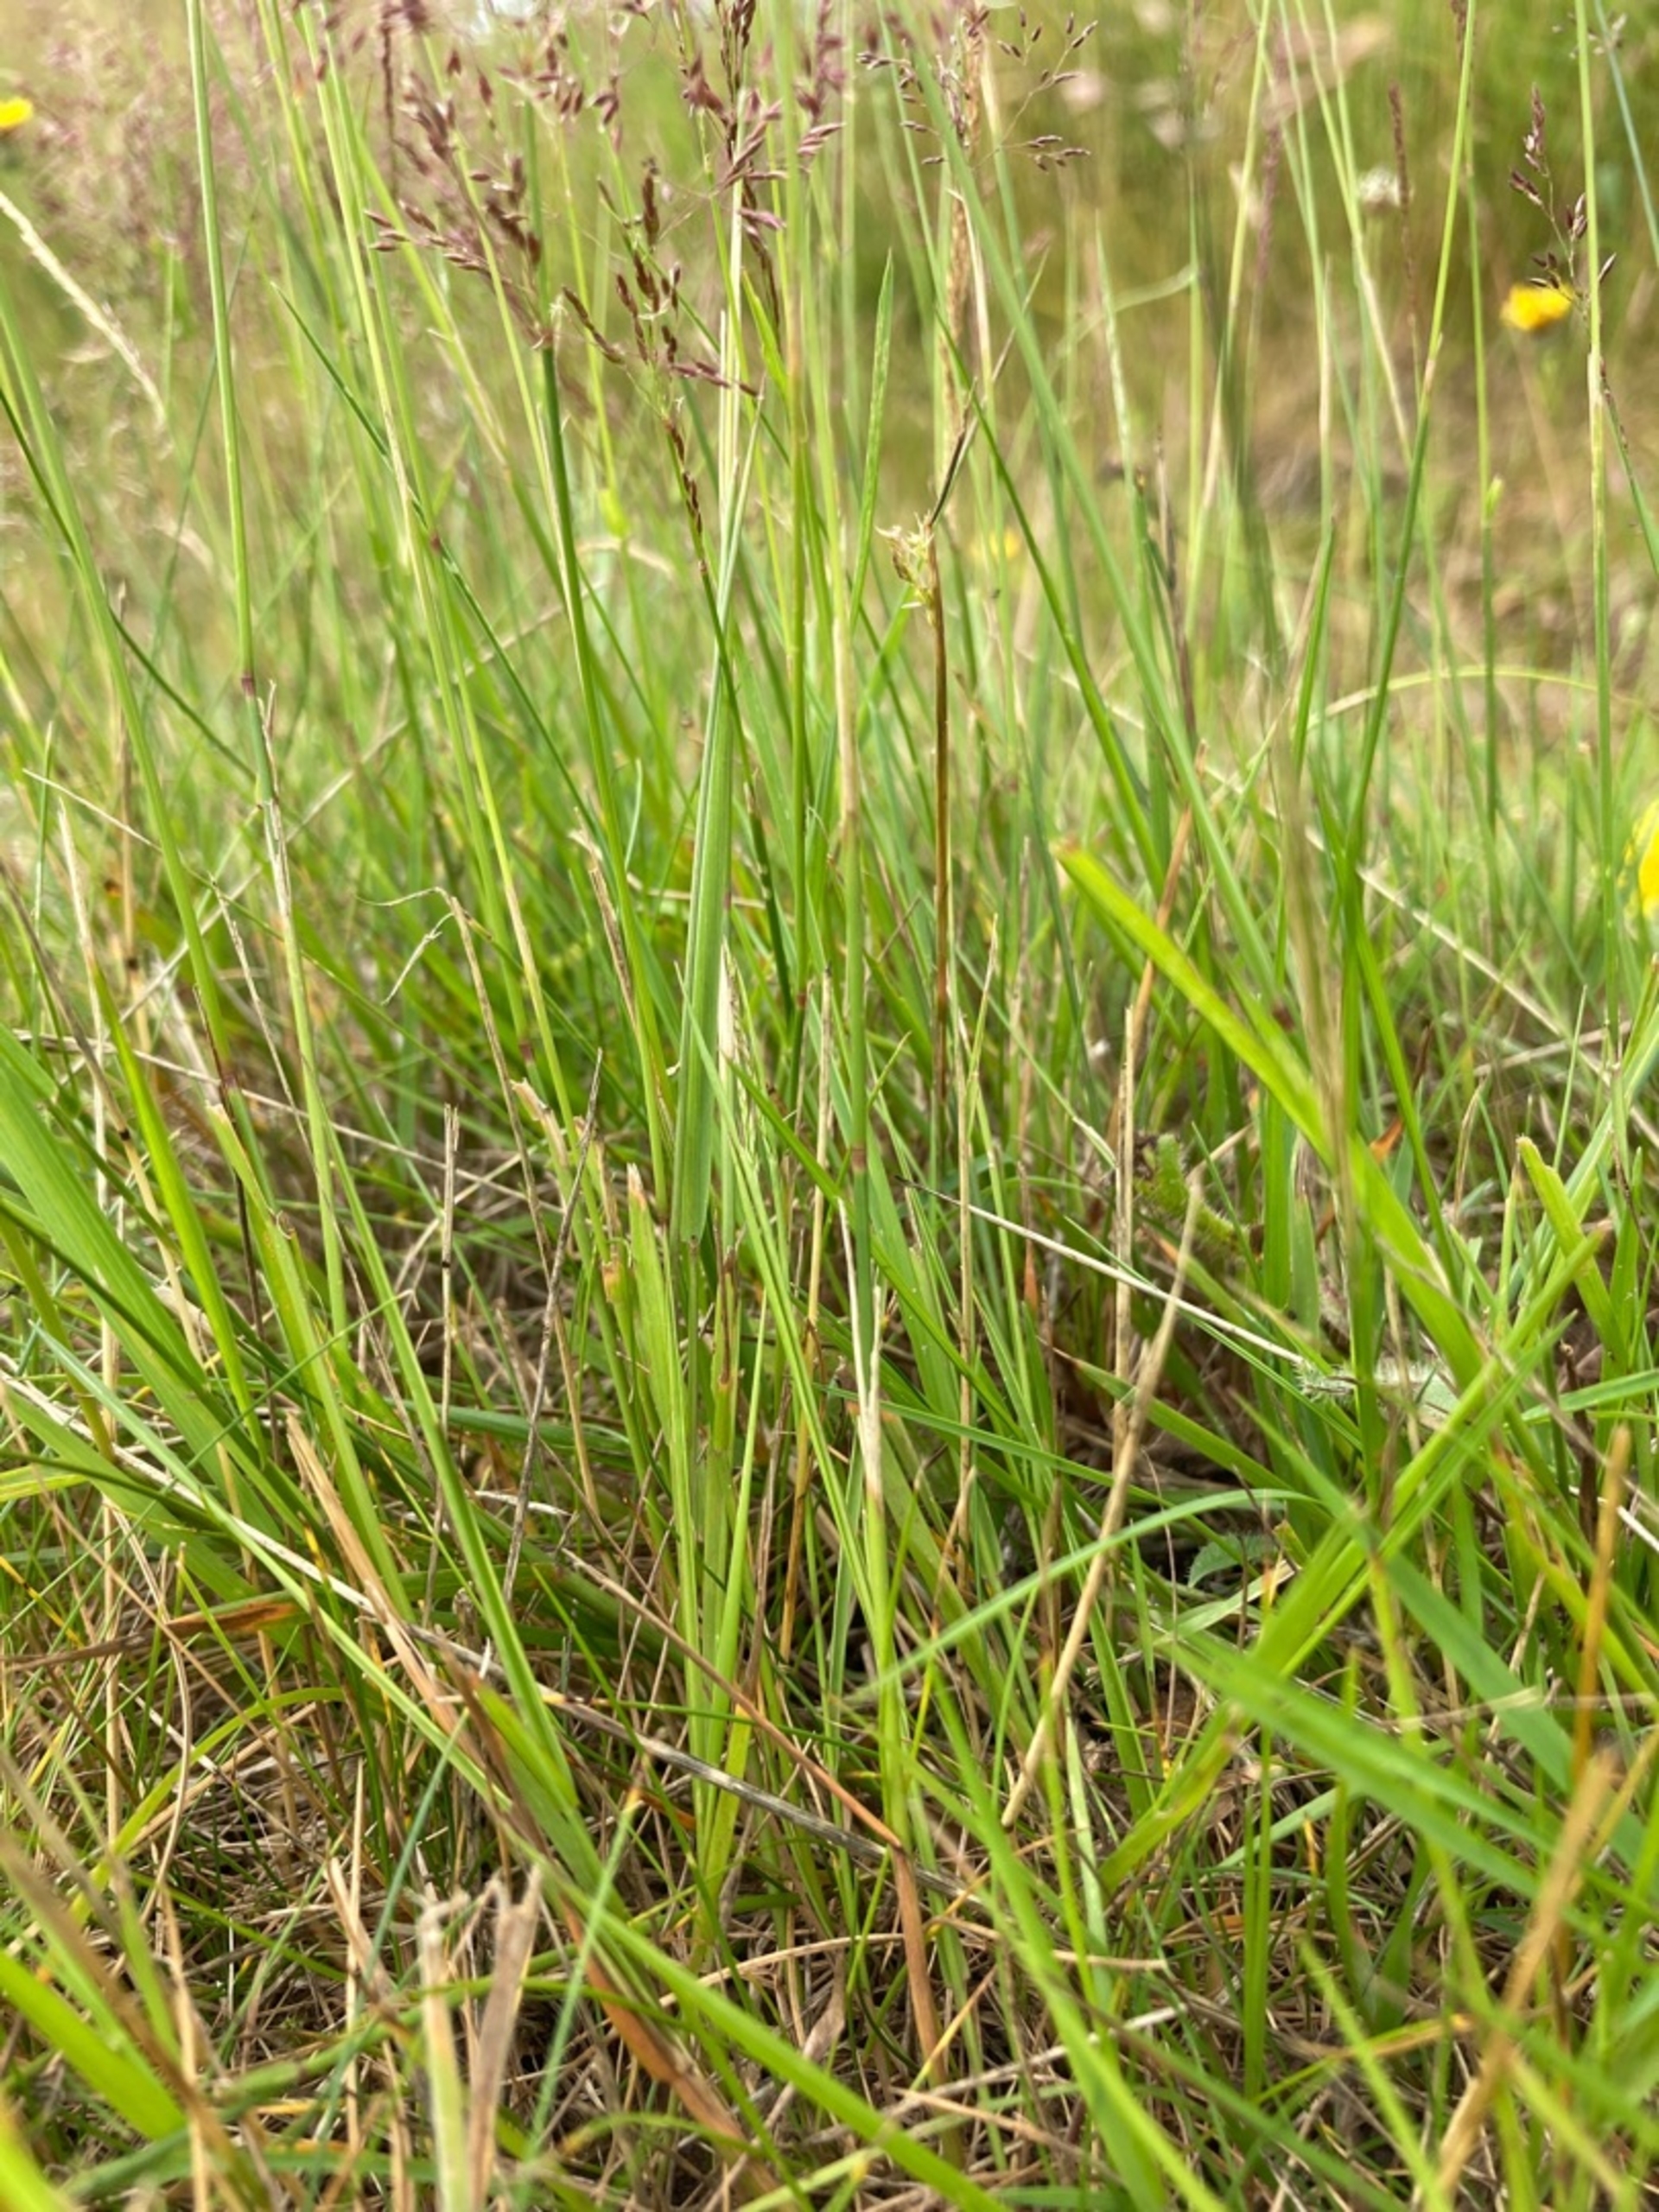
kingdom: Plantae
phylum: Tracheophyta
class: Liliopsida
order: Poales
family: Poaceae
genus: Agrostis
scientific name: Agrostis capillaris
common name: Almindelig hvene
